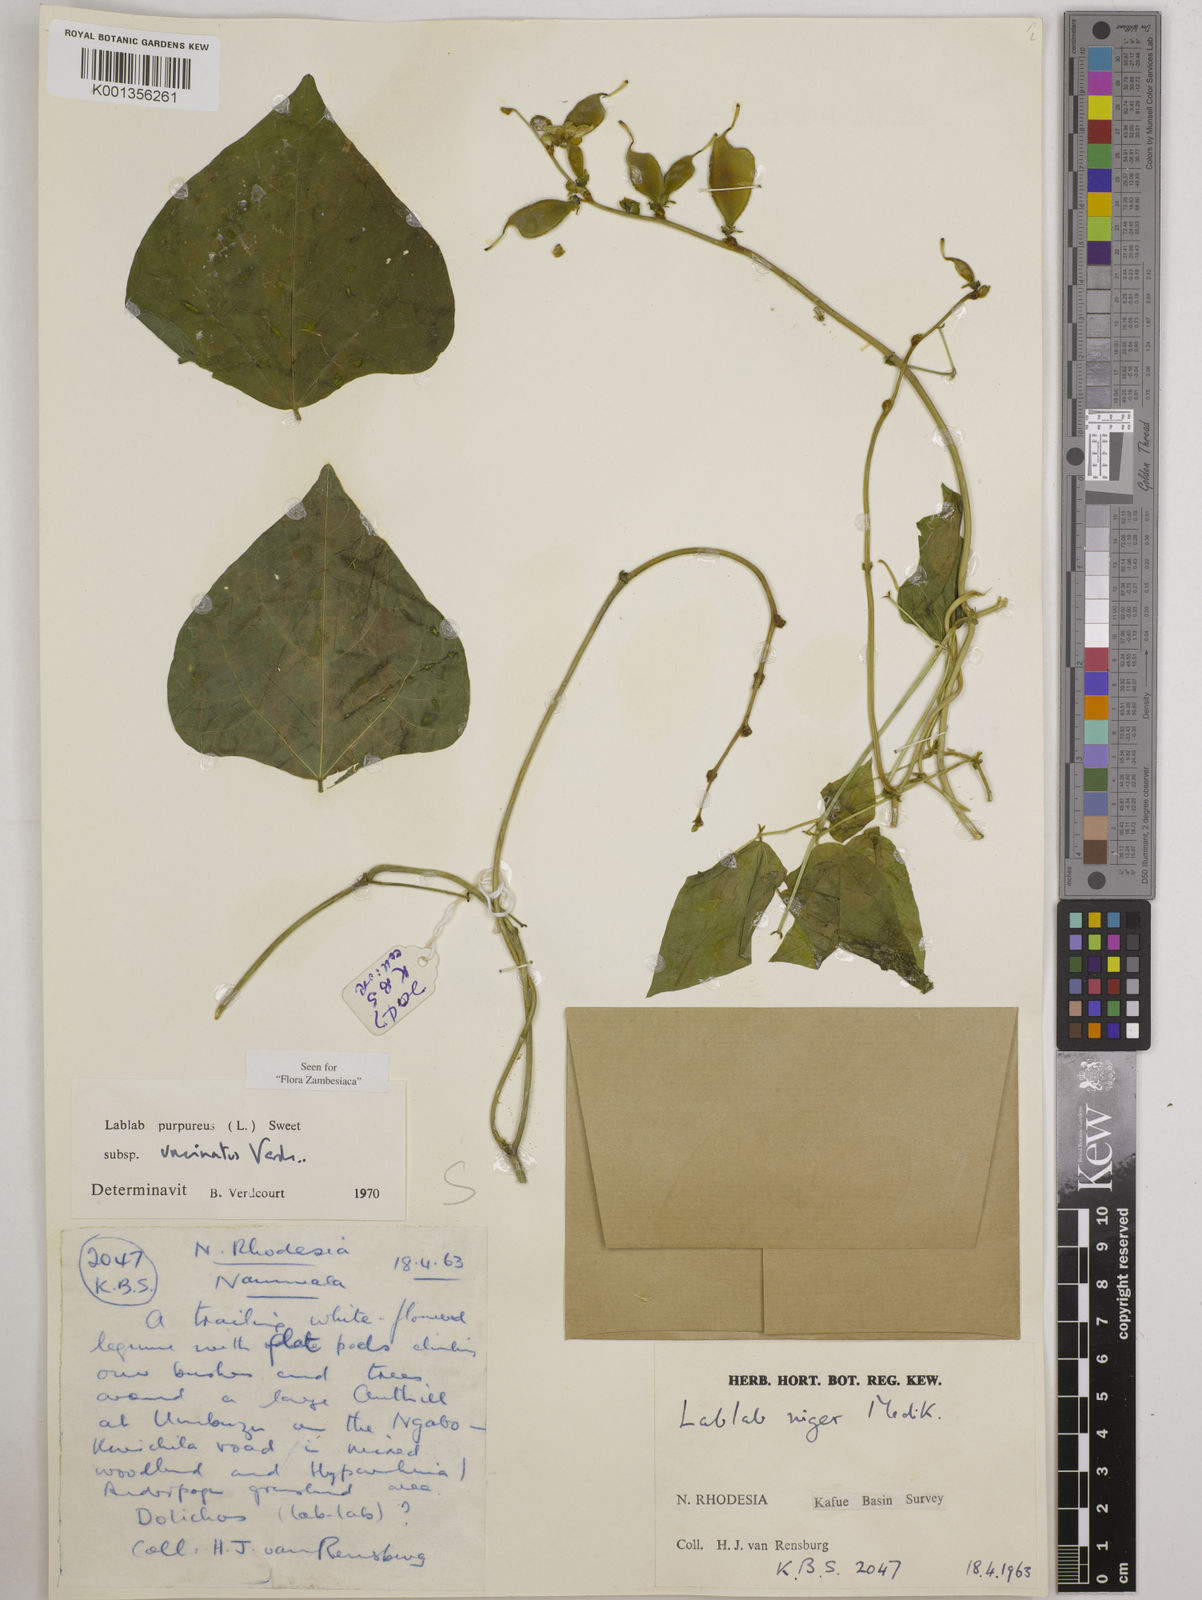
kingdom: Plantae
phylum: Tracheophyta
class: Magnoliopsida
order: Fabales
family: Fabaceae
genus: Lablab
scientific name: Lablab purpureus
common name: Lablab-bean
